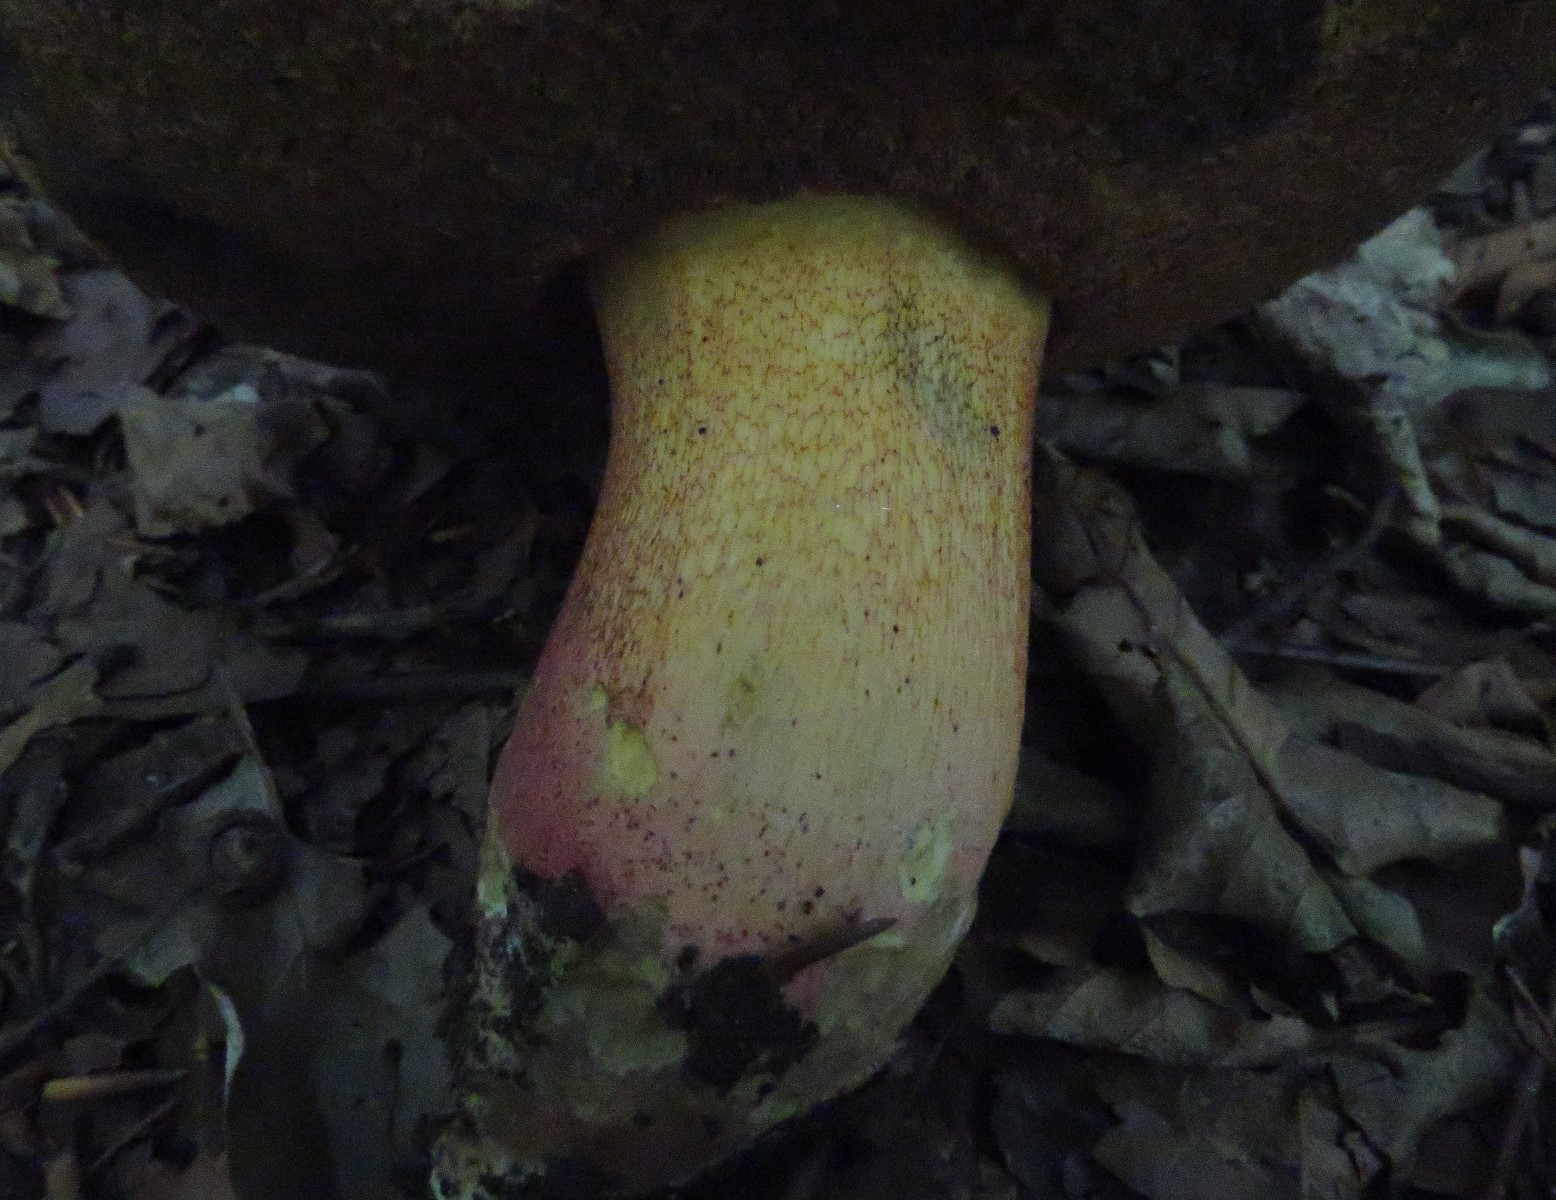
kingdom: Fungi
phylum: Basidiomycota
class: Agaricomycetes
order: Boletales
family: Boletaceae
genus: Butyriboletus
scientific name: Butyriboletus fuscoroseus
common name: brunrosa rørhat
